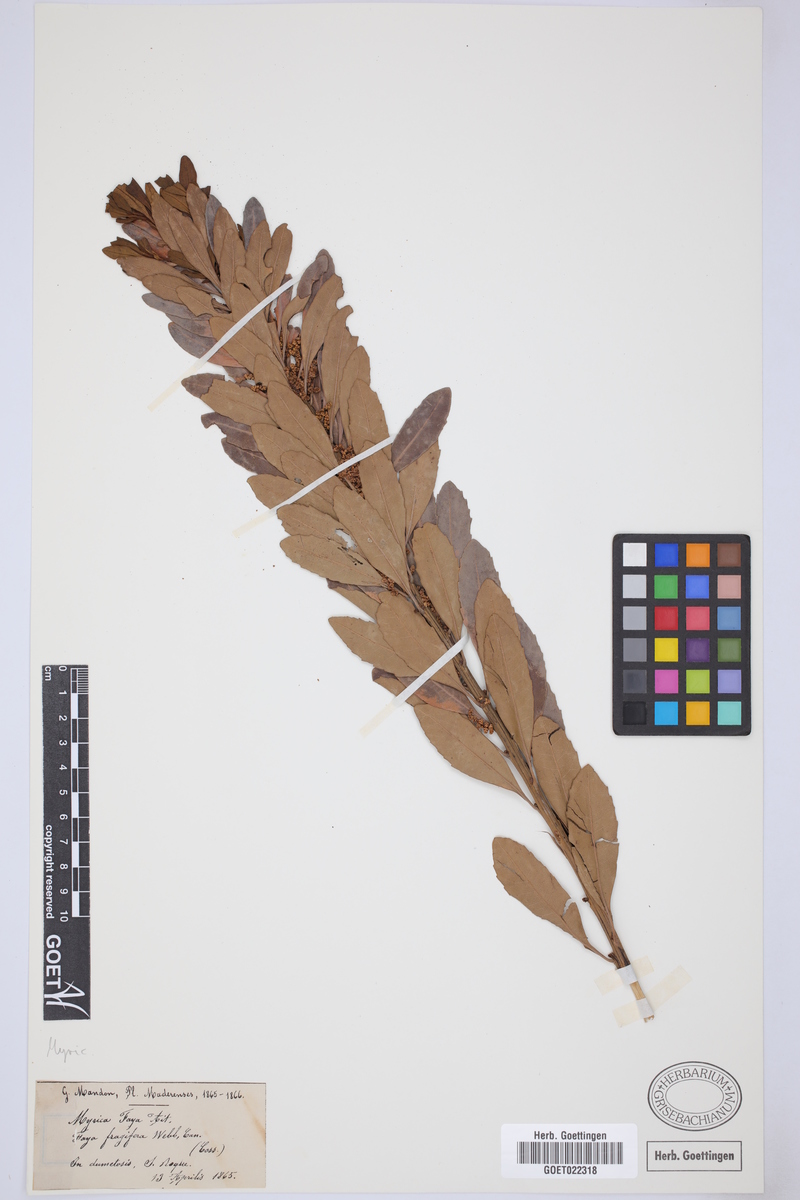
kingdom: Plantae
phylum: Tracheophyta
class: Magnoliopsida
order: Fagales
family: Myricaceae
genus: Morella
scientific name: Morella faya
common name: Firetree
